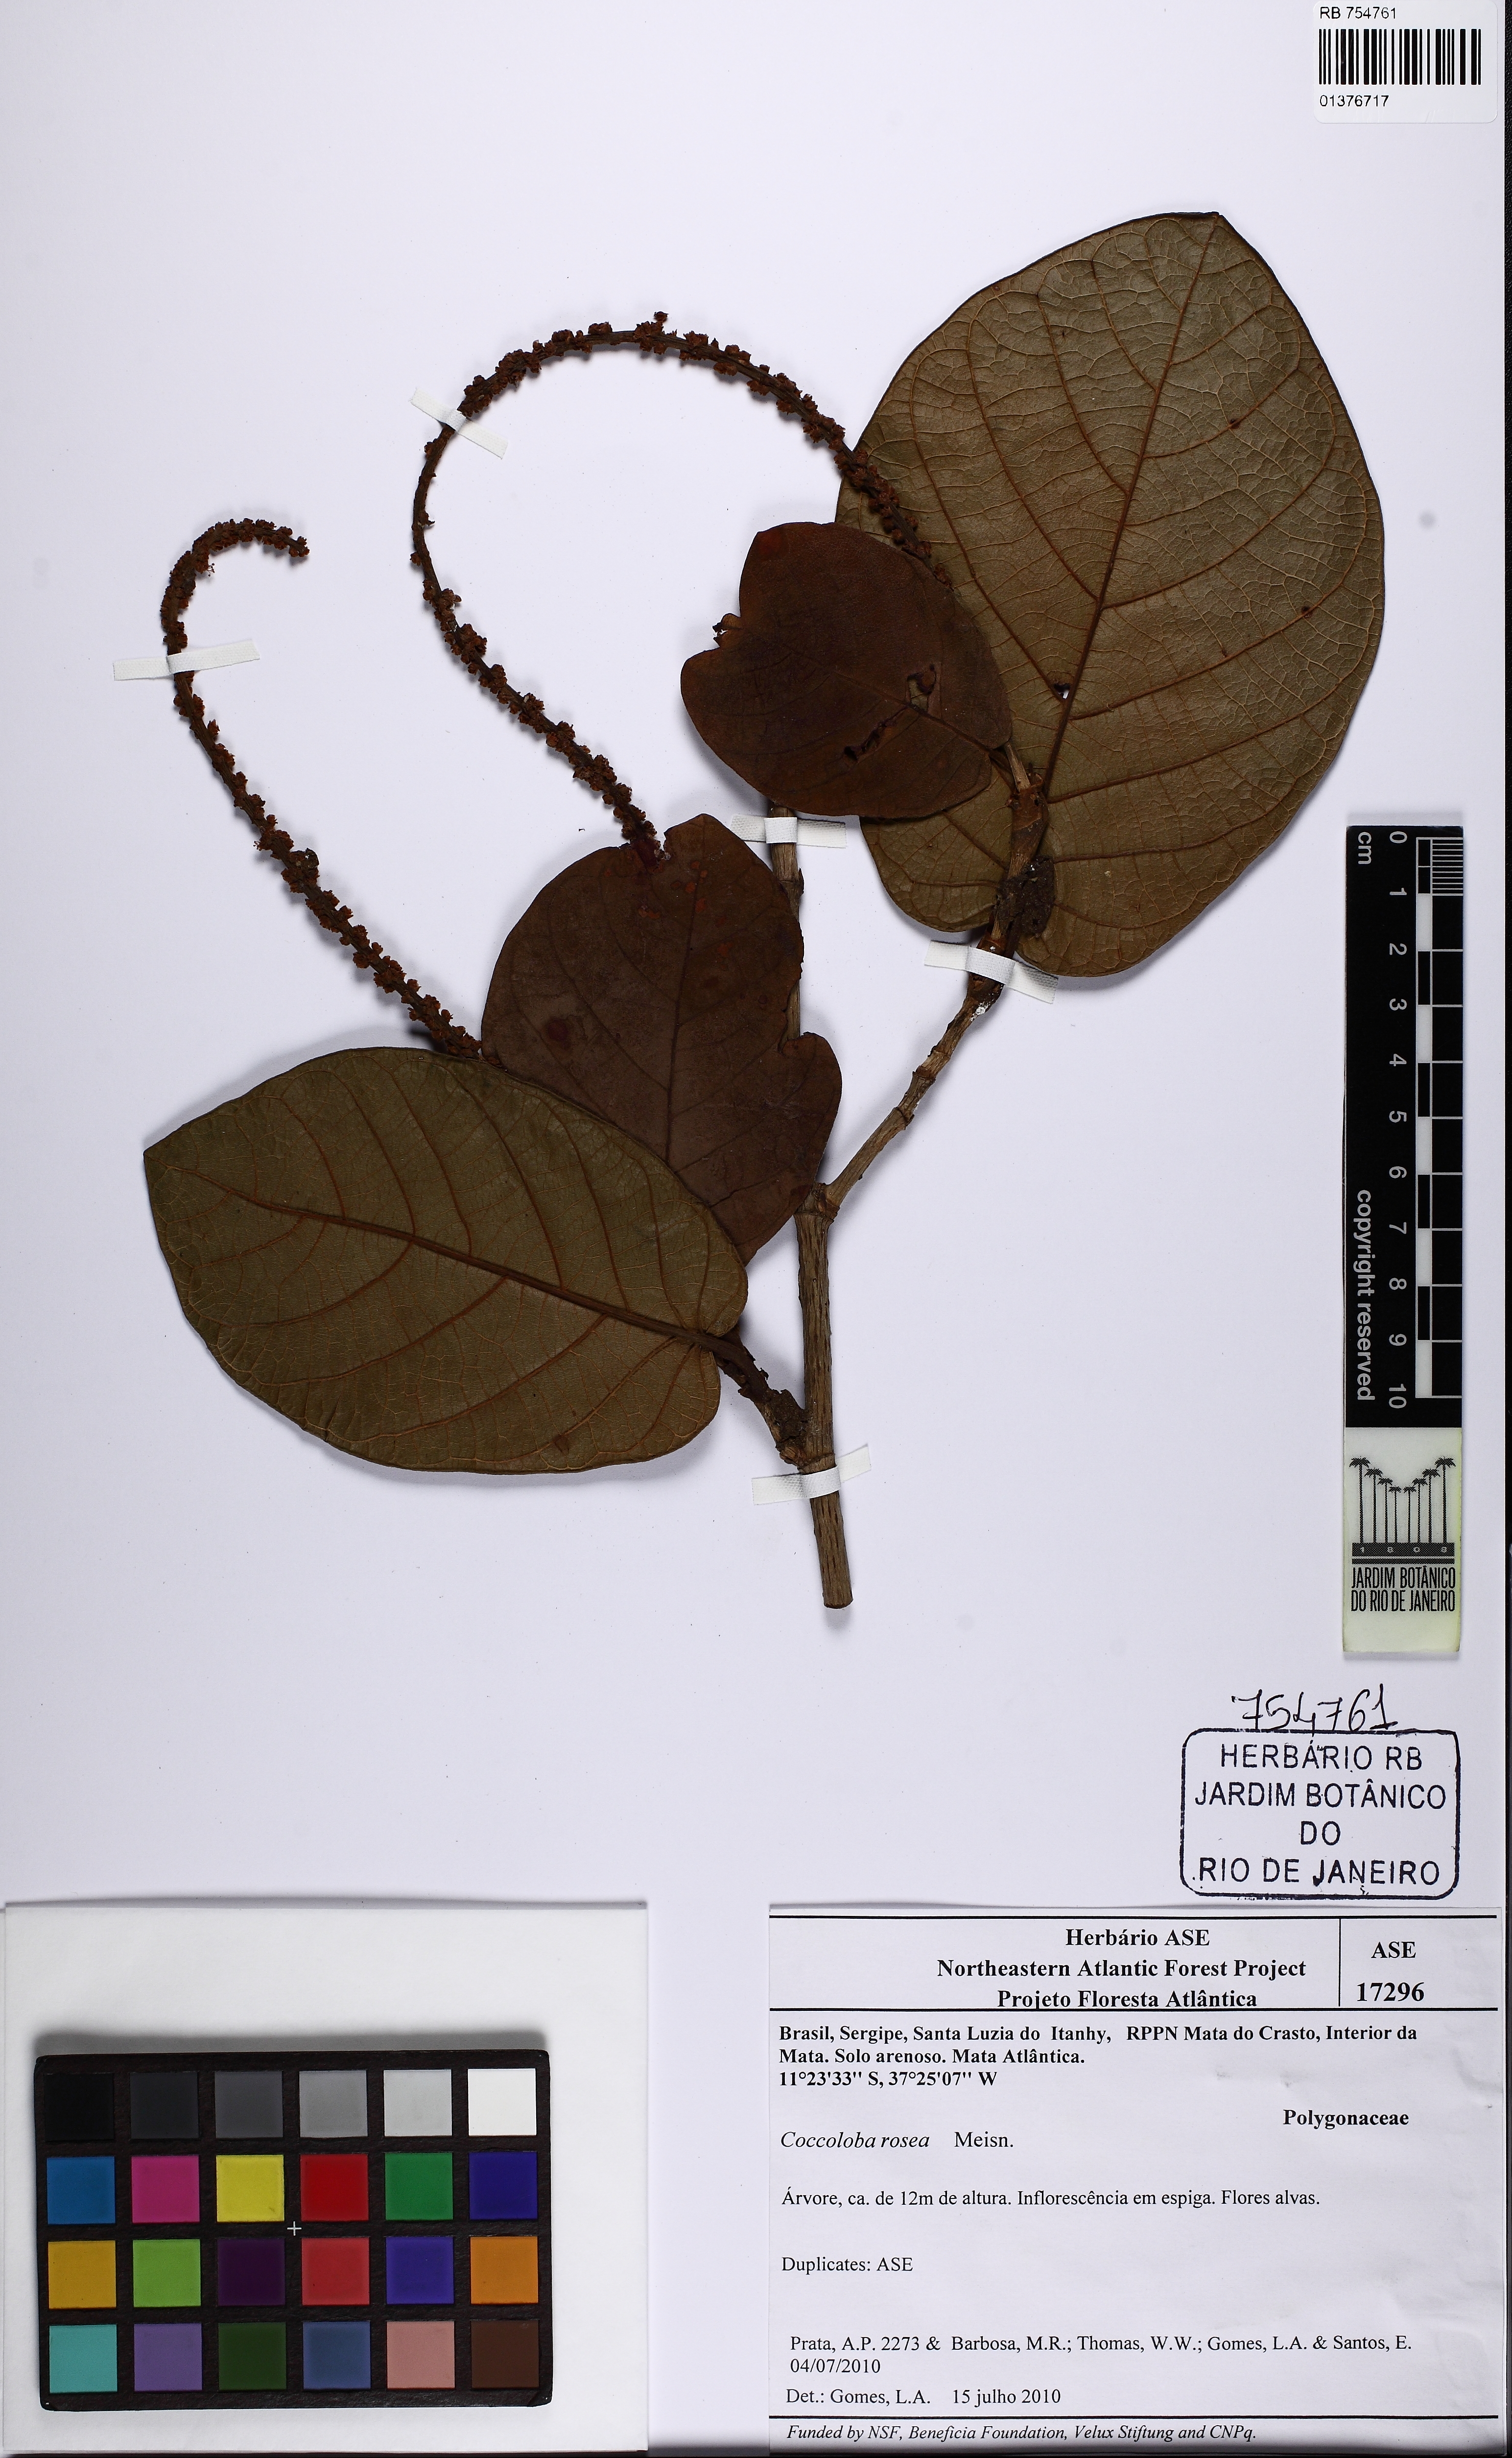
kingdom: Plantae
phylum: Tracheophyta
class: Magnoliopsida
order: Caryophyllales
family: Polygonaceae
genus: Coccoloba
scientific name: Coccoloba rosea
